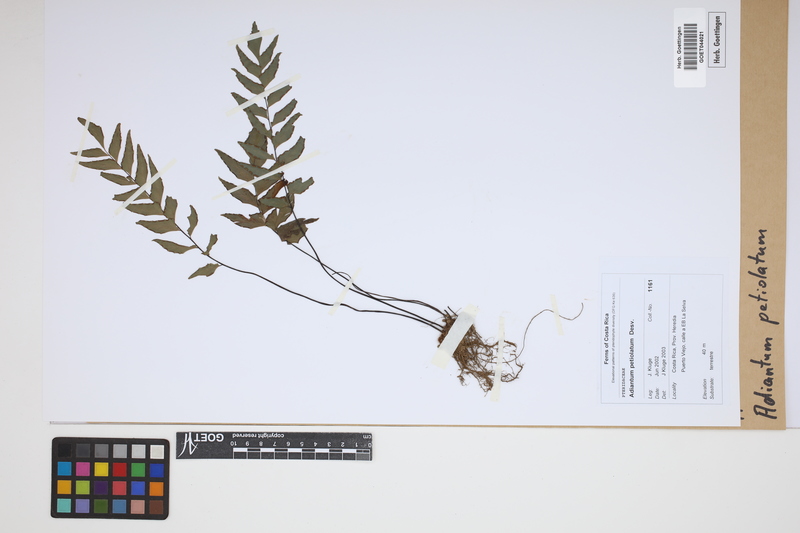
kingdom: Plantae
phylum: Tracheophyta
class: Polypodiopsida
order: Polypodiales
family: Pteridaceae
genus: Adiantum
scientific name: Adiantum petiolatum
